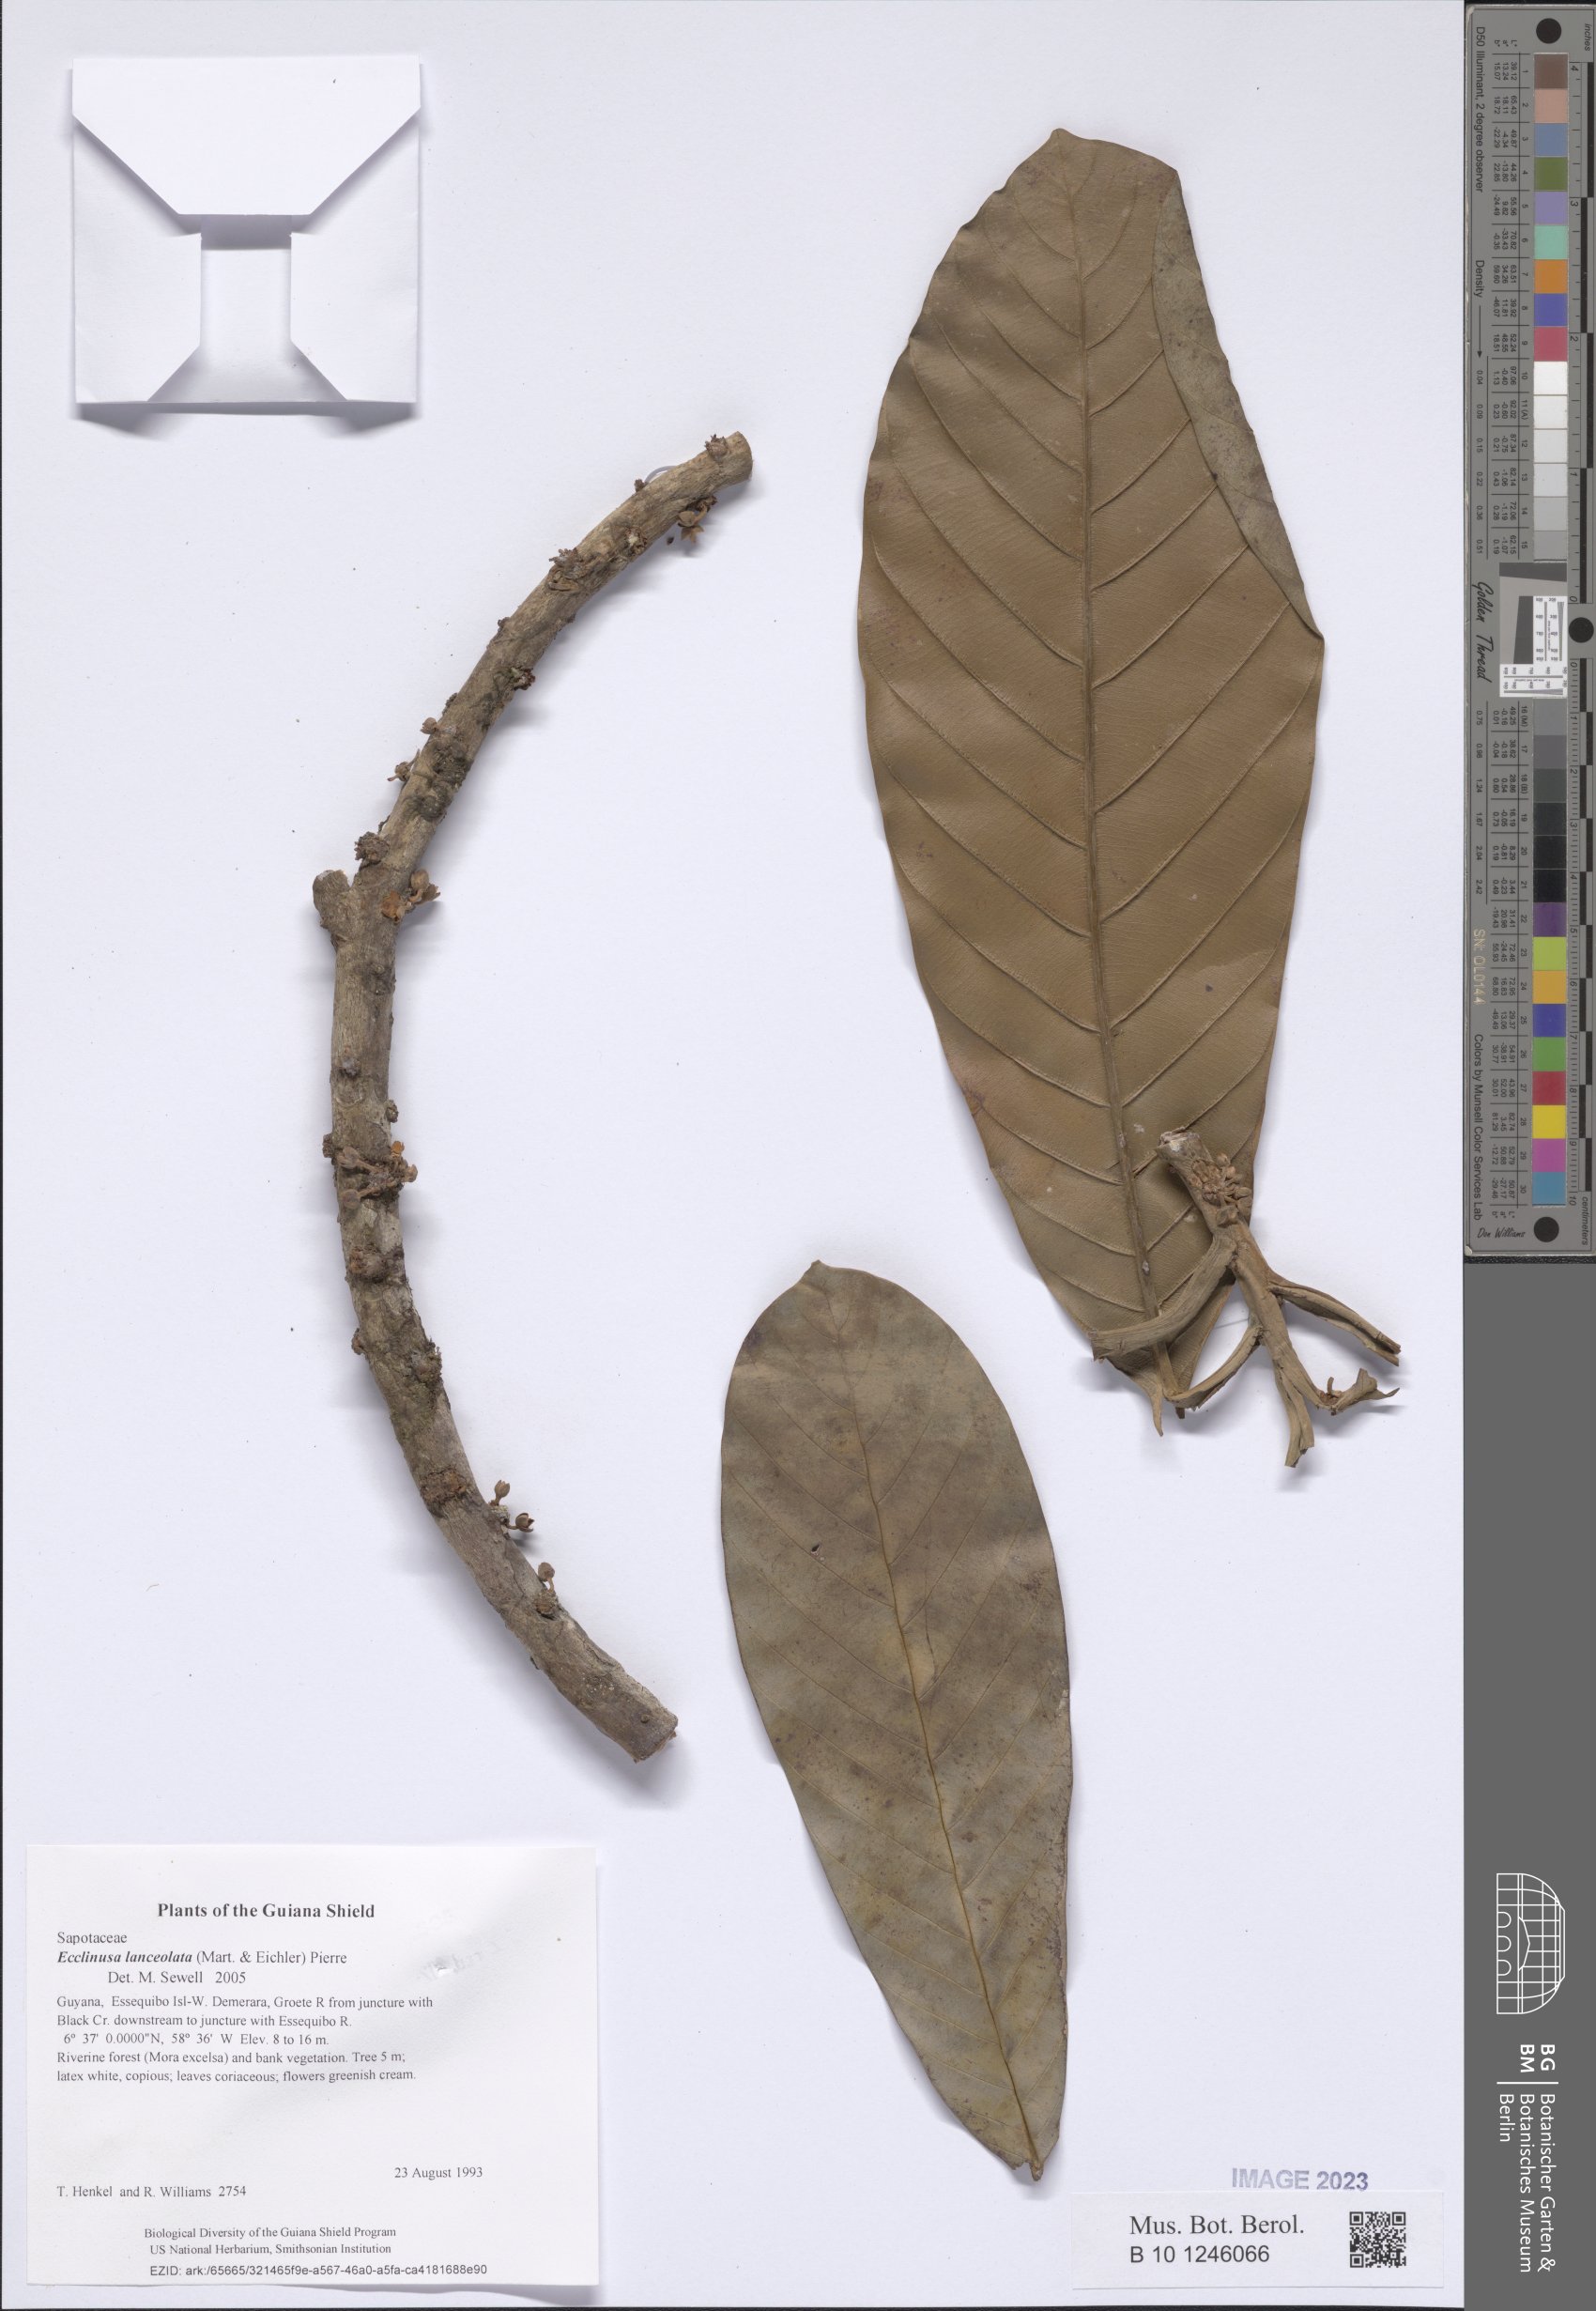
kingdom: Plantae
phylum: Tracheophyta
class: Magnoliopsida
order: Ericales
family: Sapotaceae
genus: Ecclinusa
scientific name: Ecclinusa lanceolata
